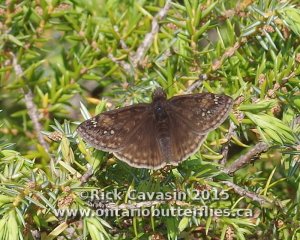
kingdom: Animalia
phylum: Arthropoda
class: Insecta
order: Lepidoptera
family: Hesperiidae
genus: Gesta
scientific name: Gesta
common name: Juvenal's Duskywing
